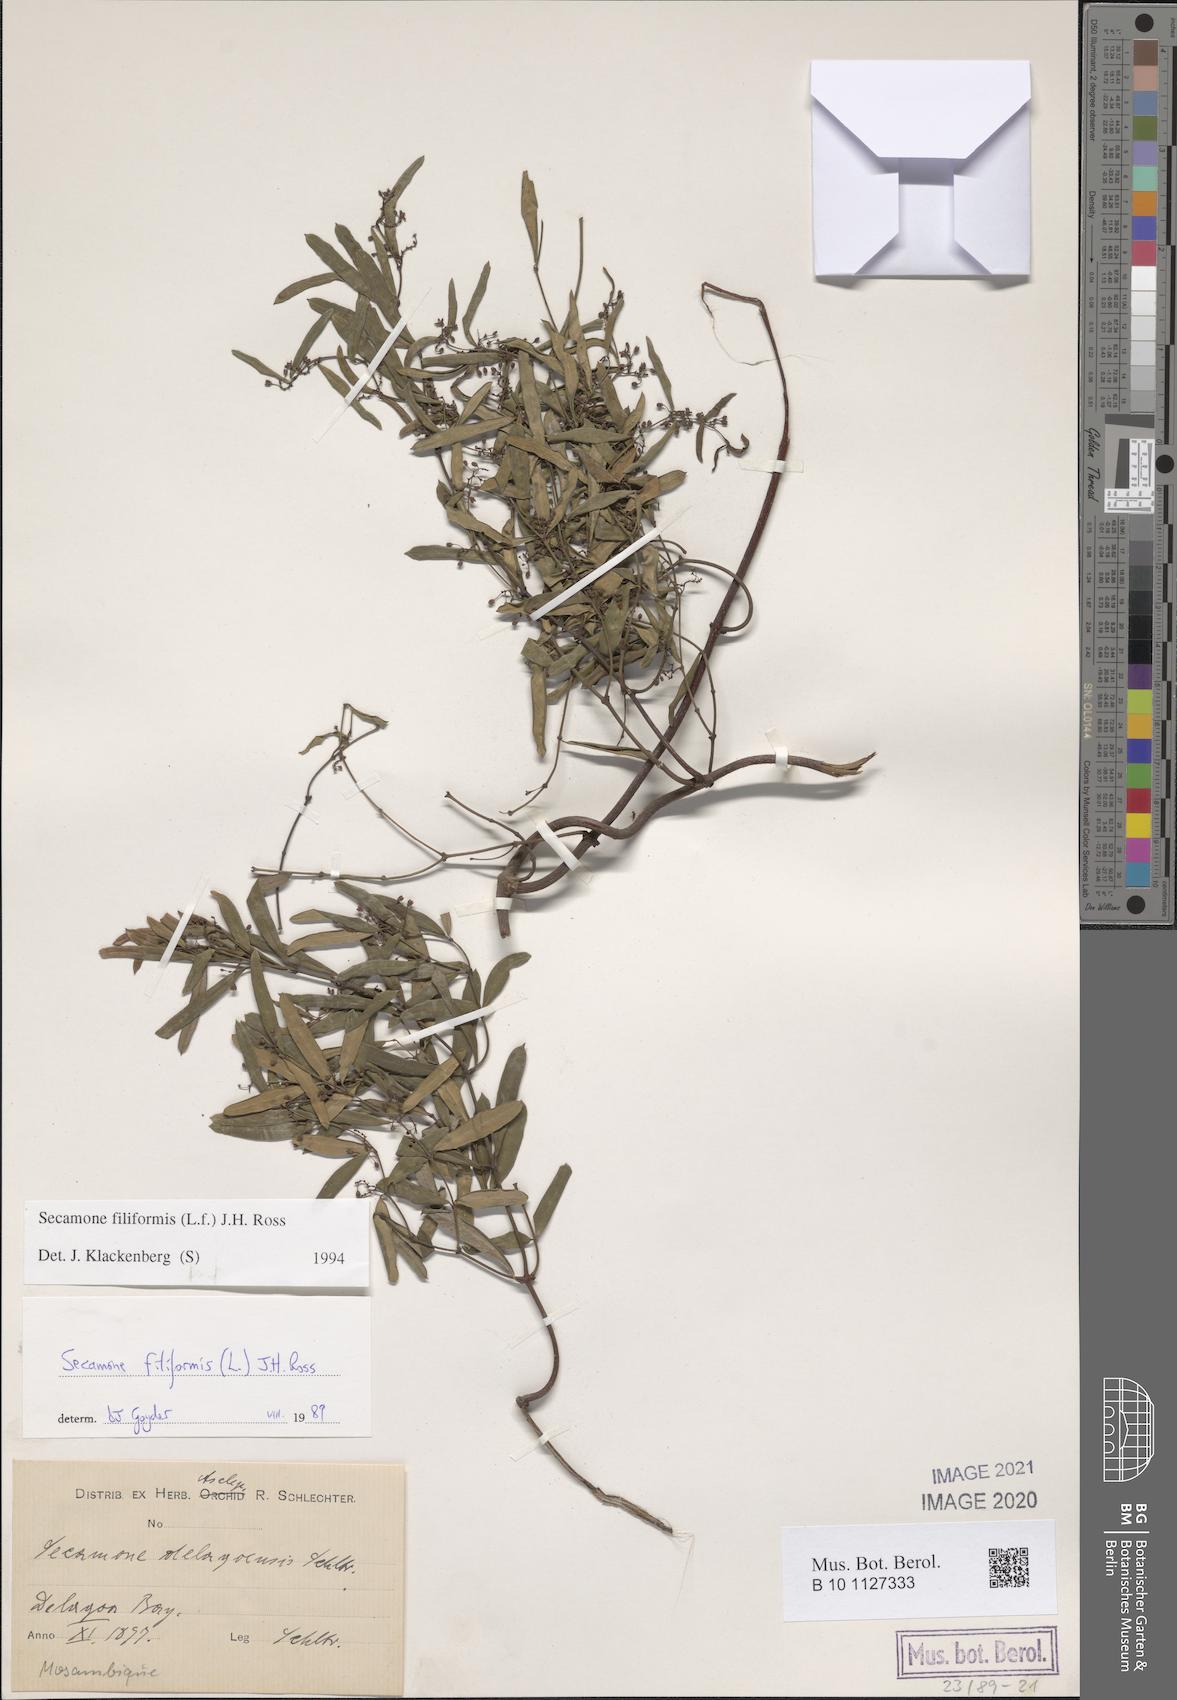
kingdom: Plantae
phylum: Tracheophyta
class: Magnoliopsida
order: Gentianales
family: Apocynaceae
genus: Secamone
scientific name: Secamone filiformis
